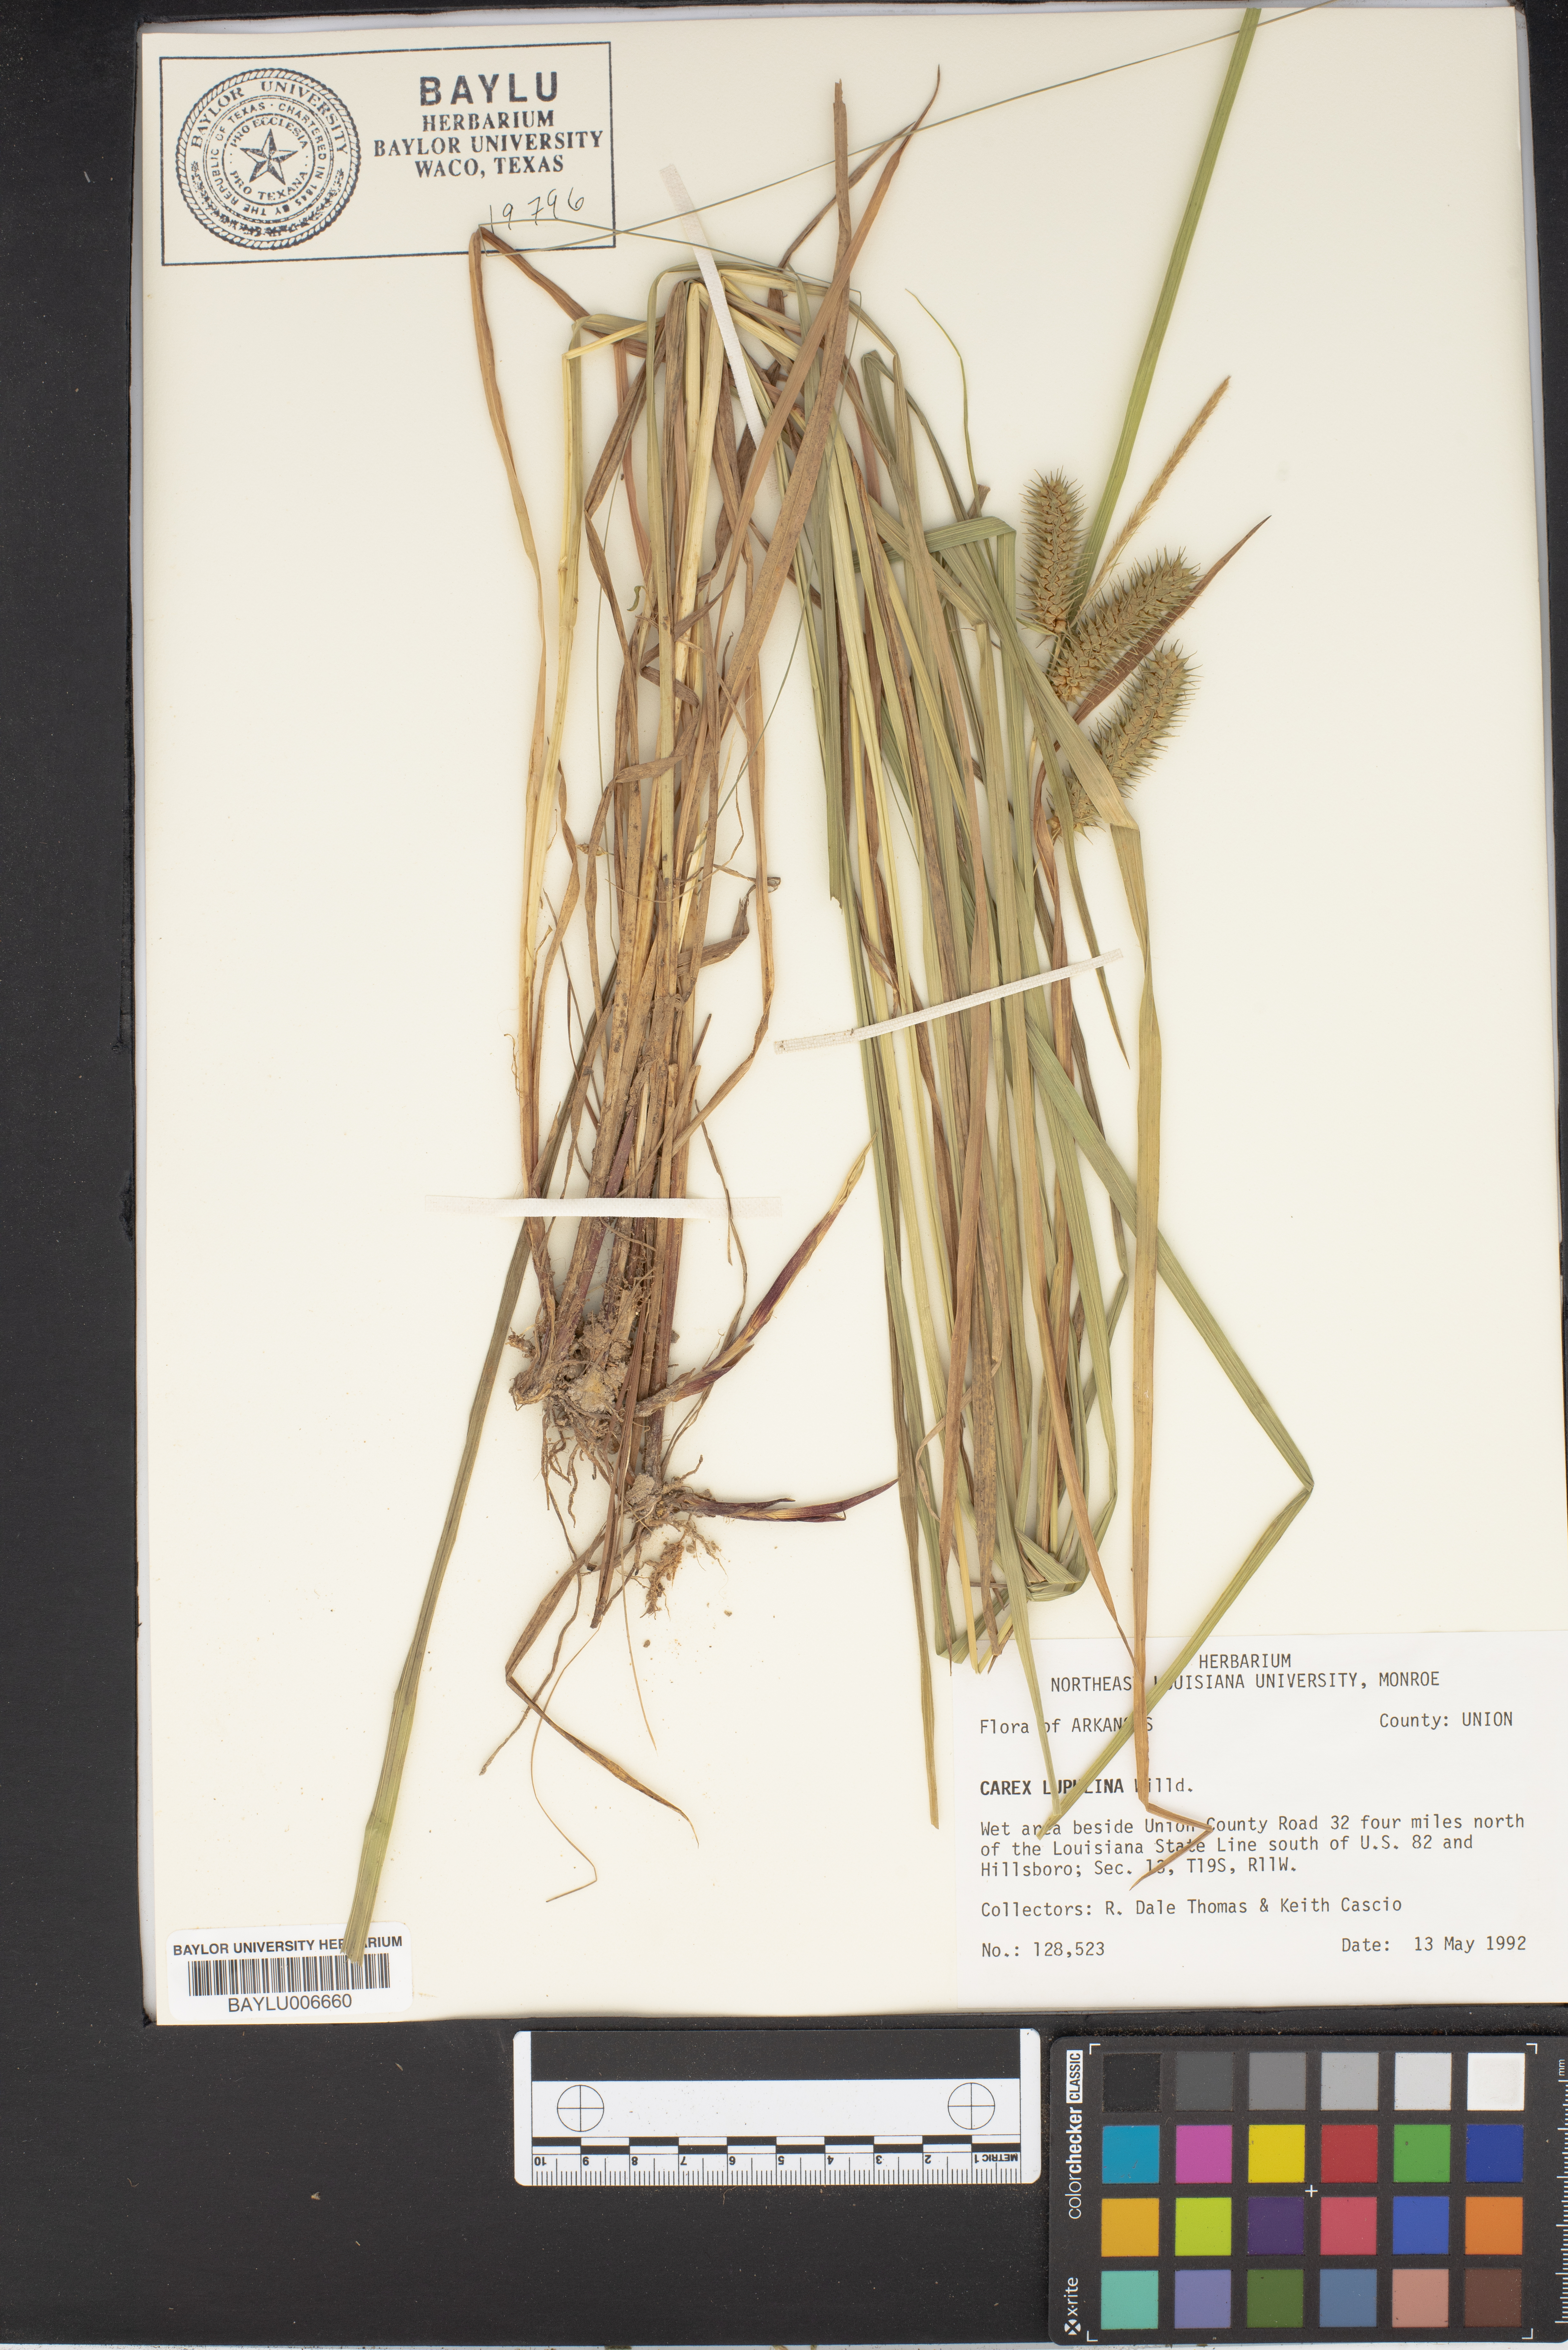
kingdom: Plantae
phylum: Tracheophyta
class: Liliopsida
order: Poales
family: Cyperaceae
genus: Carex
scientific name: Carex lupulina
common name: Hop sedge
